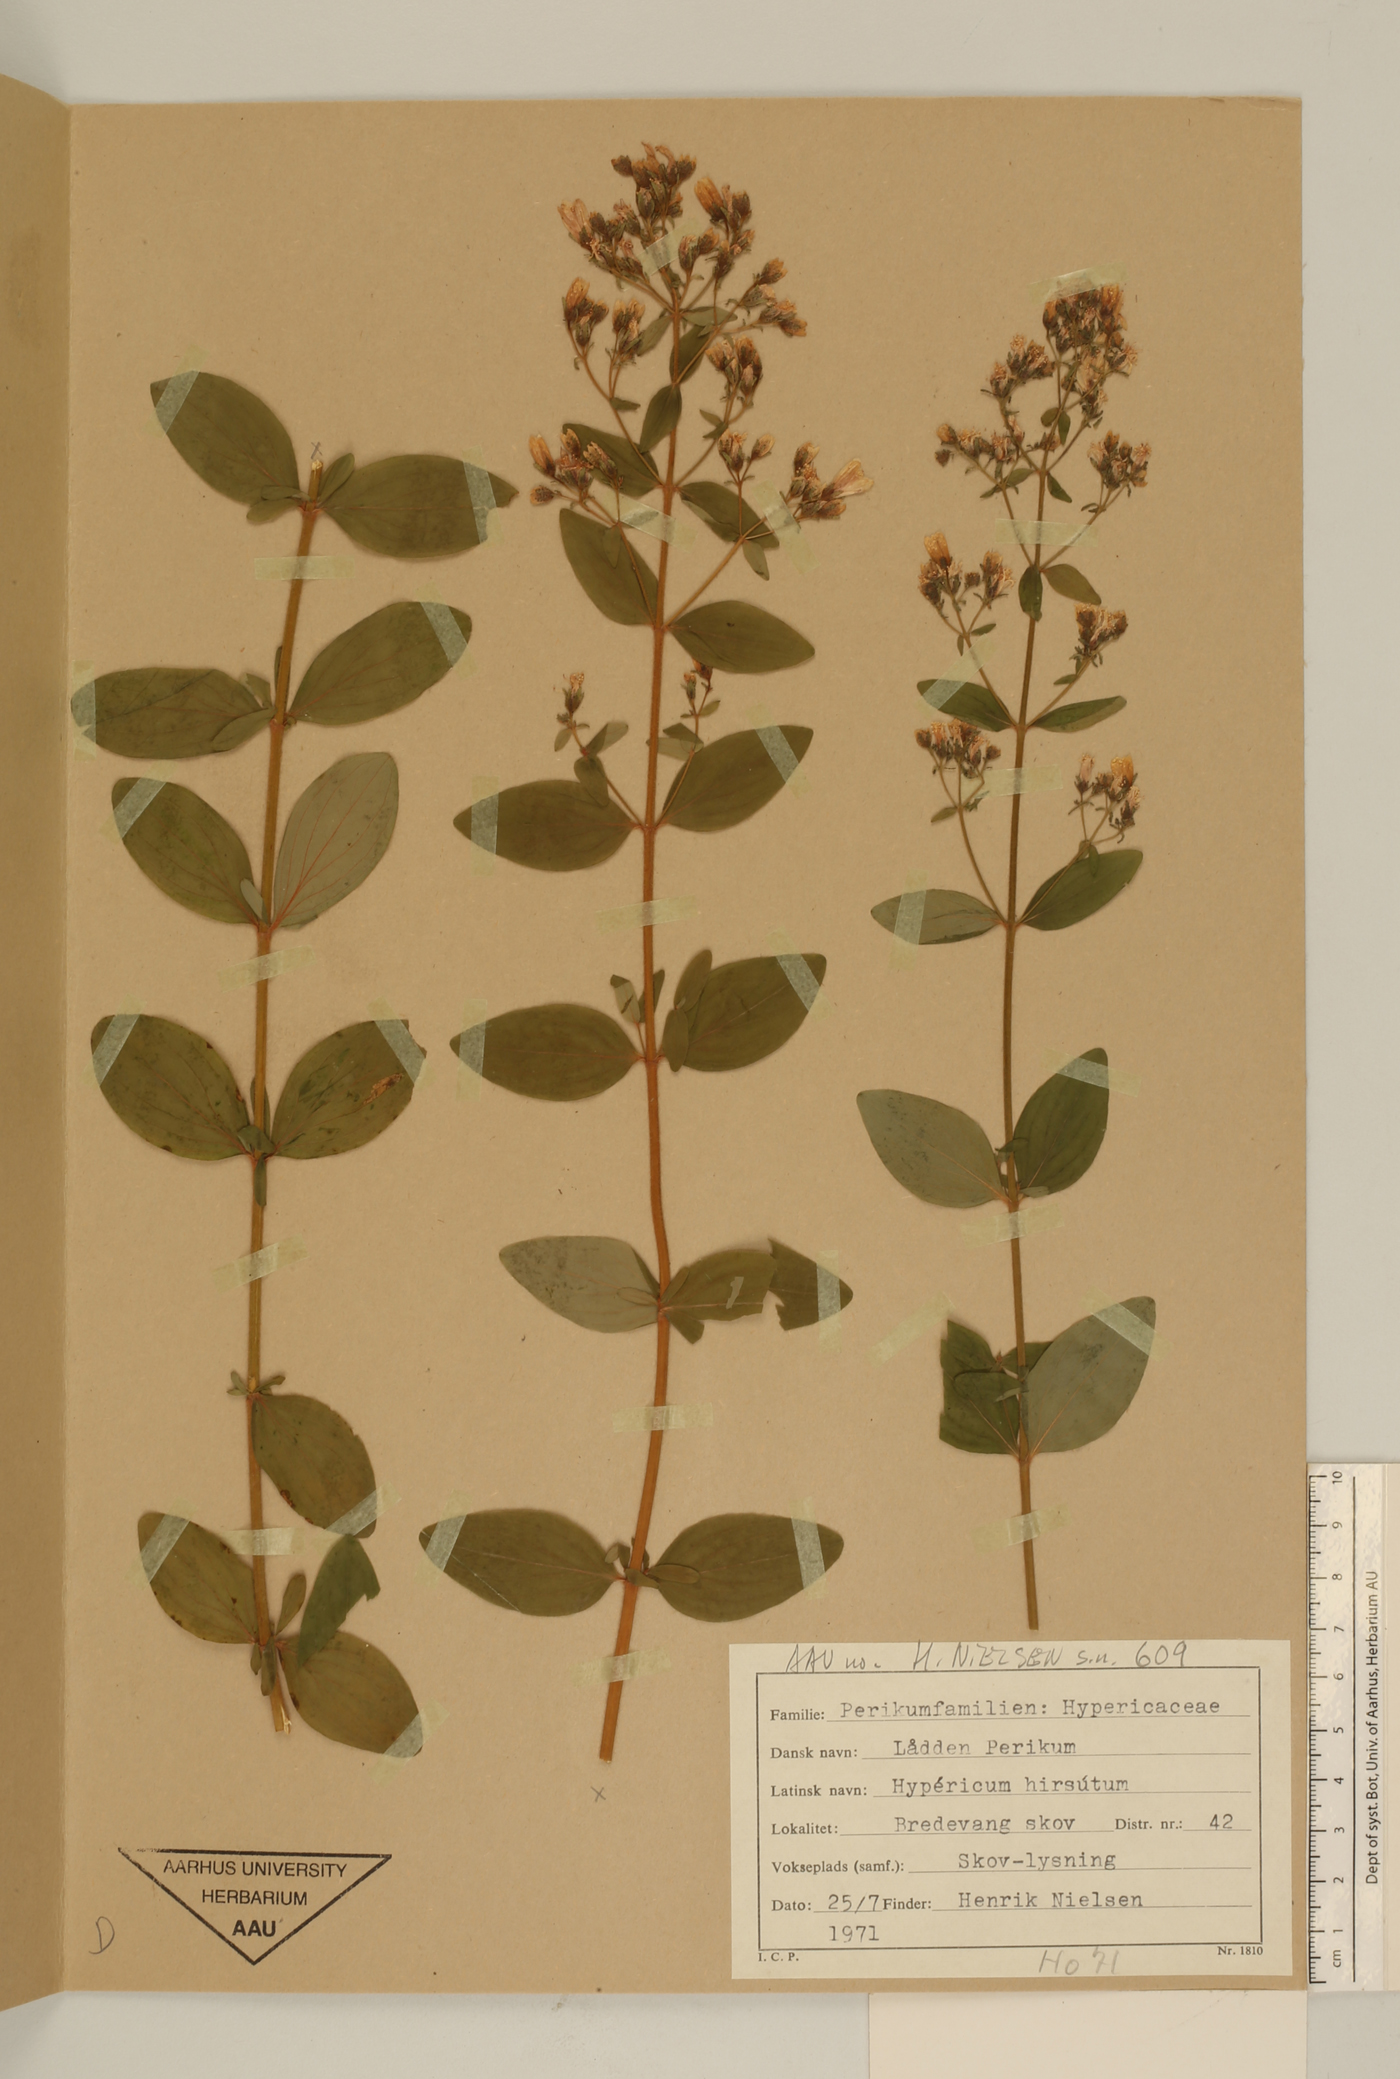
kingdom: Plantae
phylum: Tracheophyta
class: Magnoliopsida
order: Malpighiales
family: Hypericaceae
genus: Hypericum
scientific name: Hypericum hirsutum
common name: Hairy st. john's-wort
